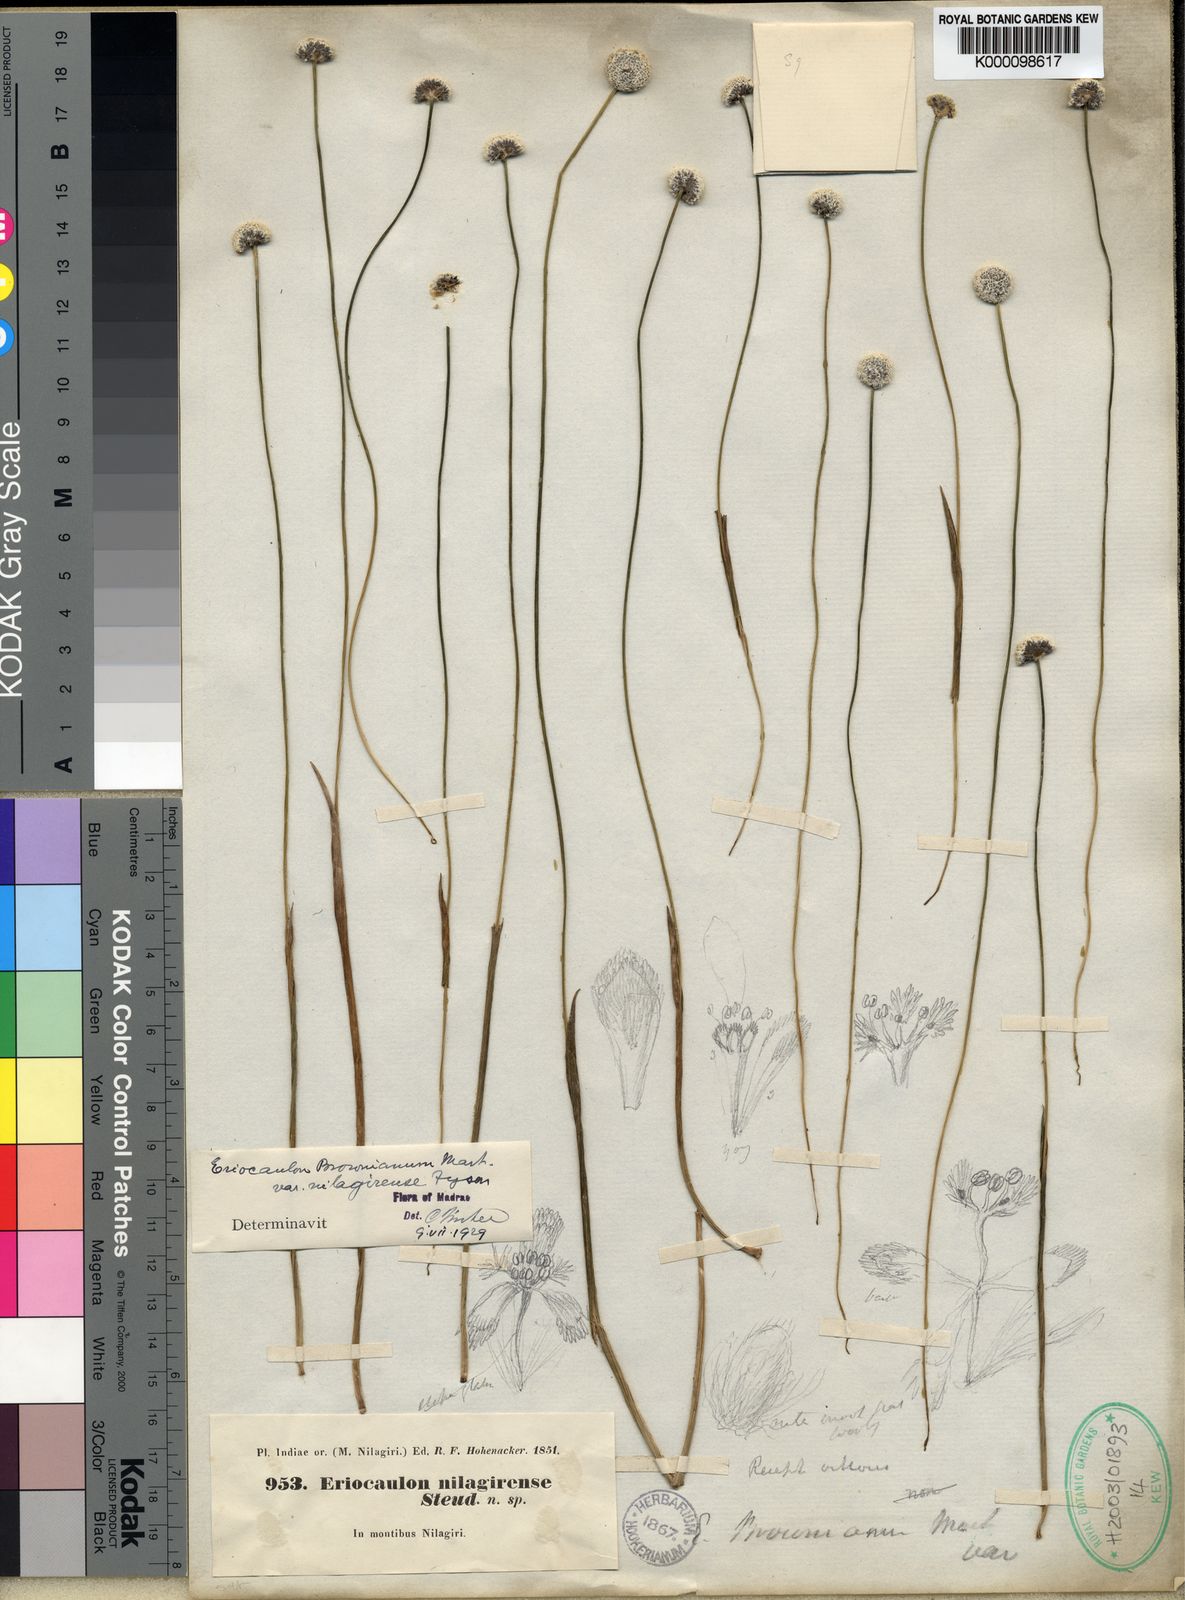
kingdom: Plantae
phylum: Tracheophyta
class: Liliopsida
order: Poales
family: Eriocaulaceae
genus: Eriocaulon
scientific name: Eriocaulon brownianum
